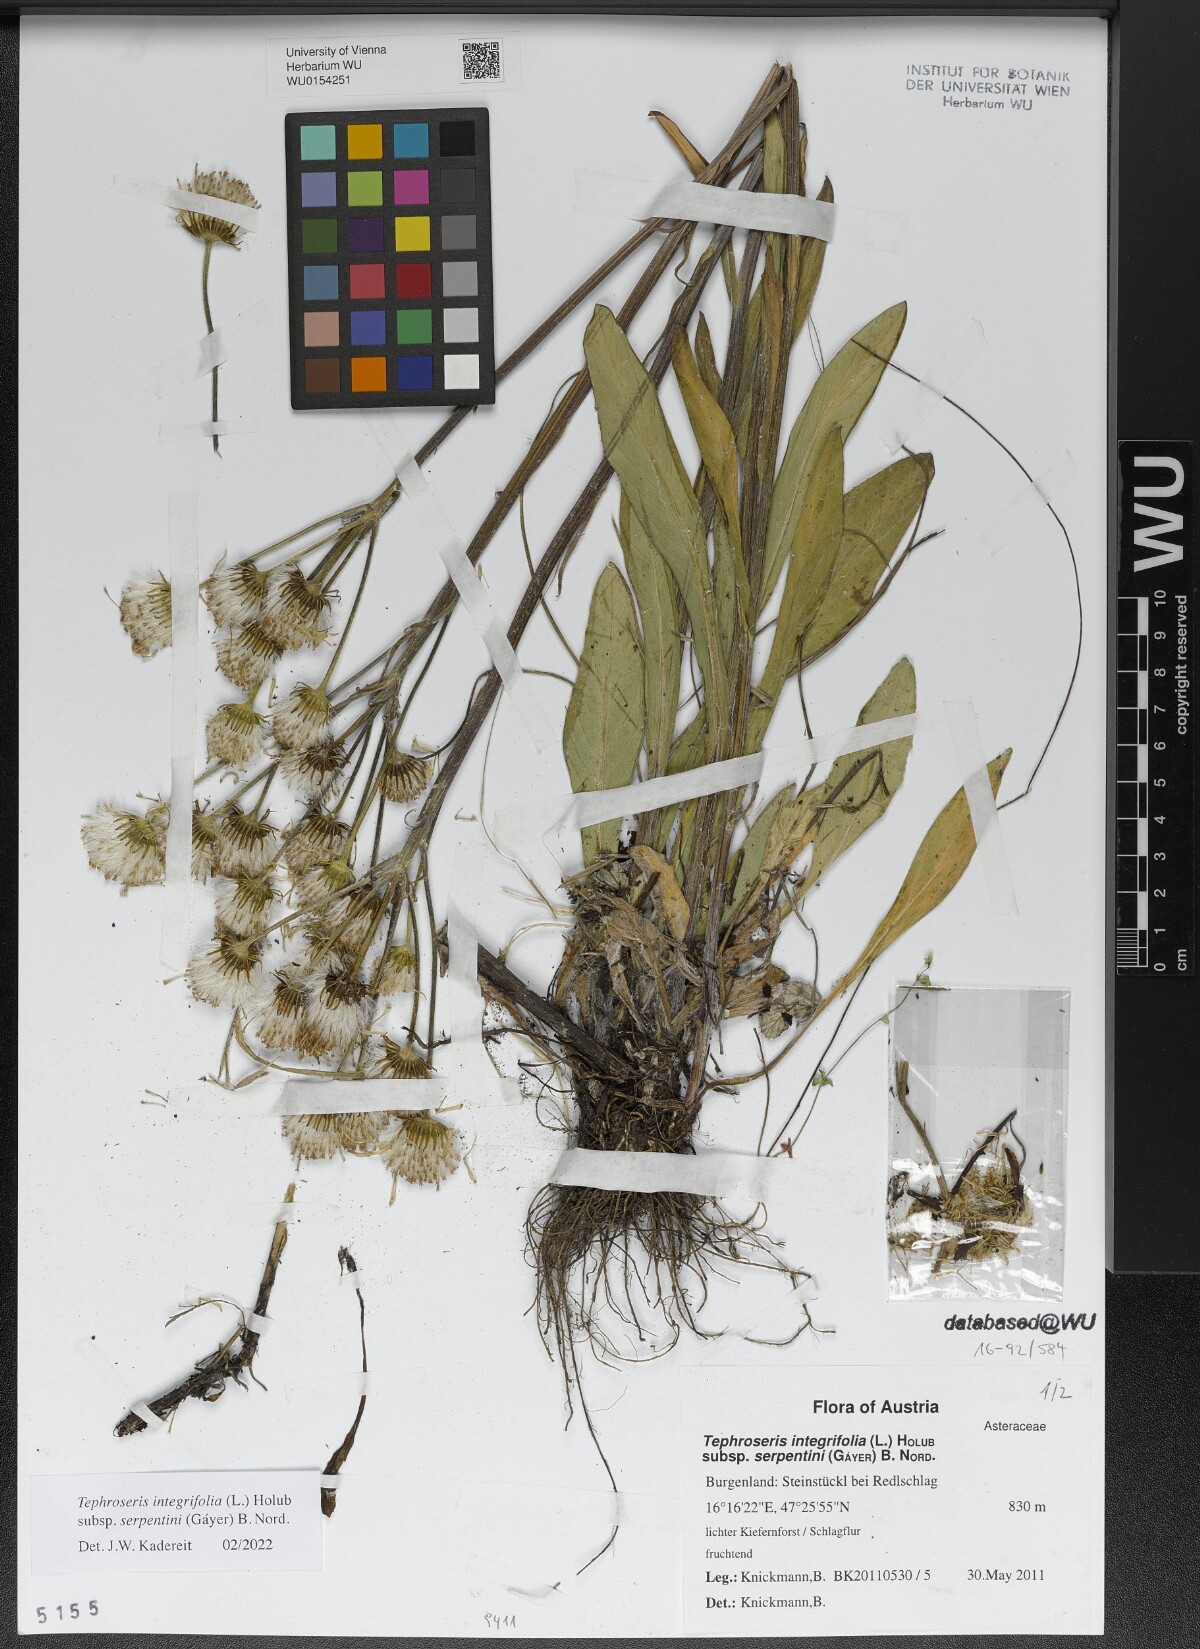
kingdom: Plantae
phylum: Tracheophyta
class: Magnoliopsida
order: Asterales
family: Asteraceae
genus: Tephroseris
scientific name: Tephroseris integrifolia
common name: Field fleawort
